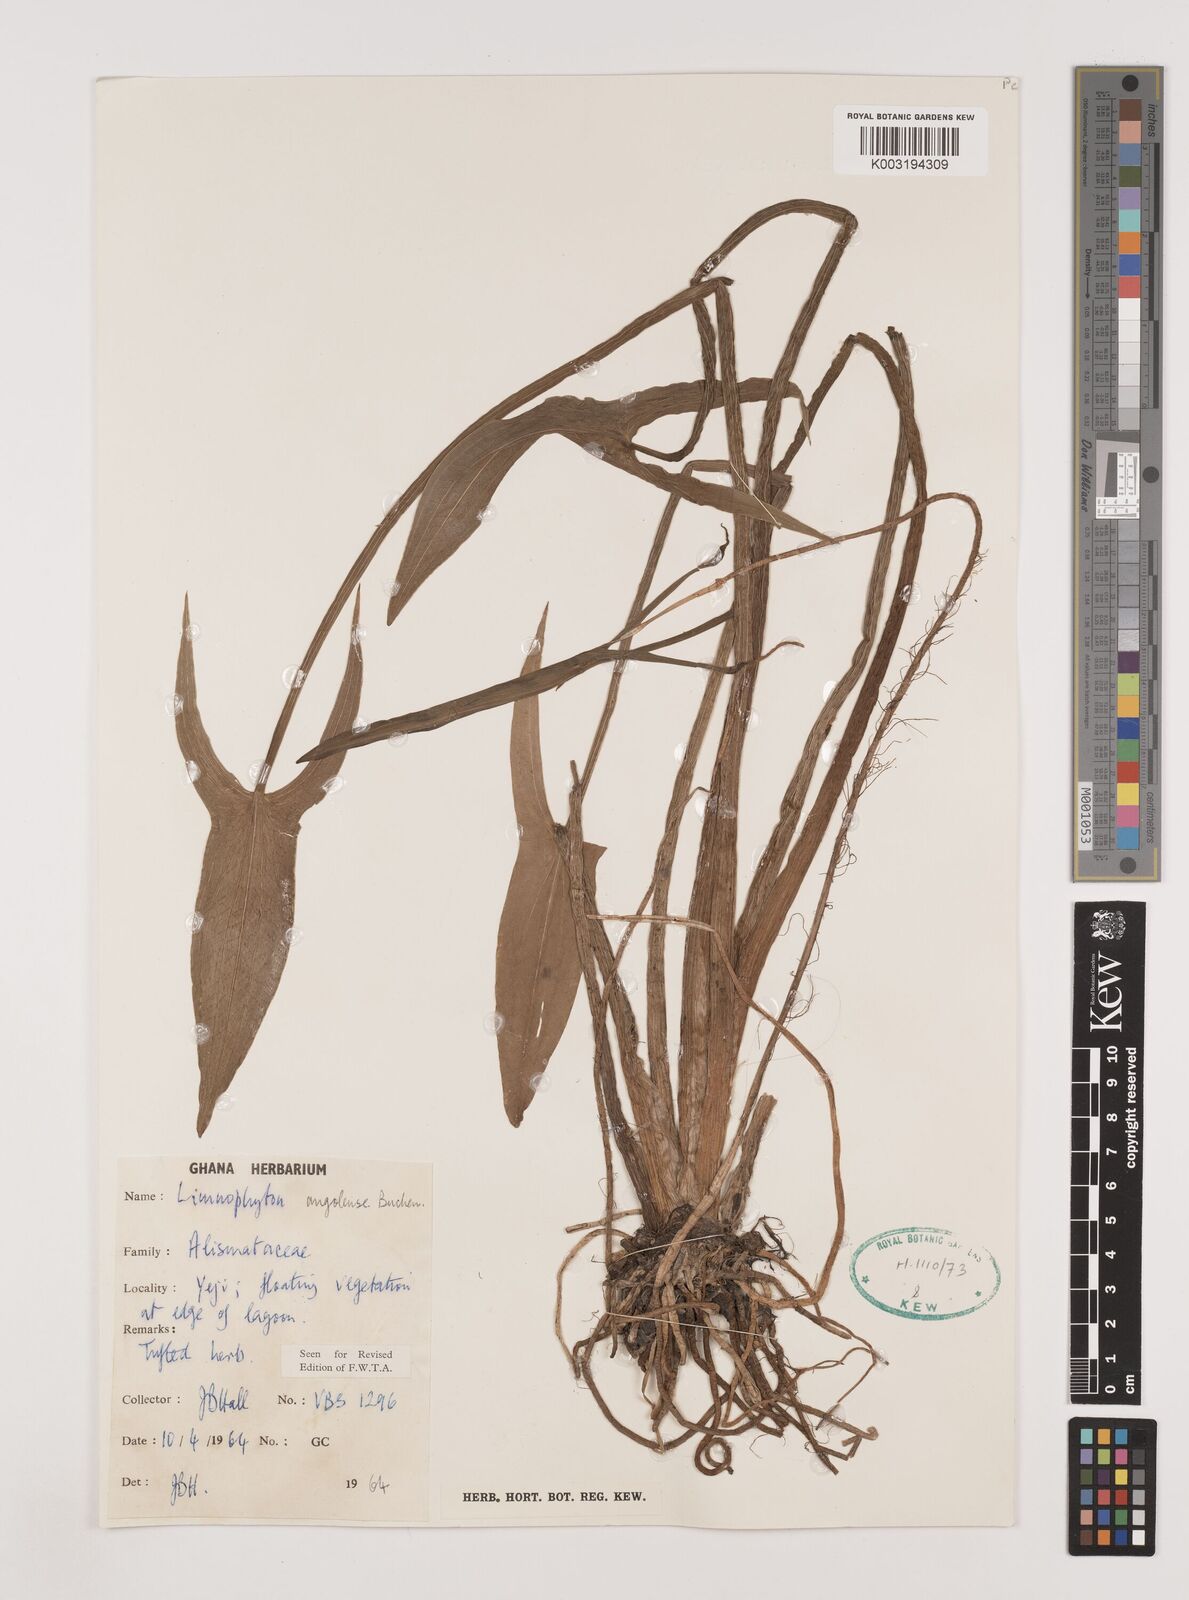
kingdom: Plantae
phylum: Tracheophyta
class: Liliopsida
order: Alismatales
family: Alismataceae
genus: Limnophyton
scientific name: Limnophyton angolense
